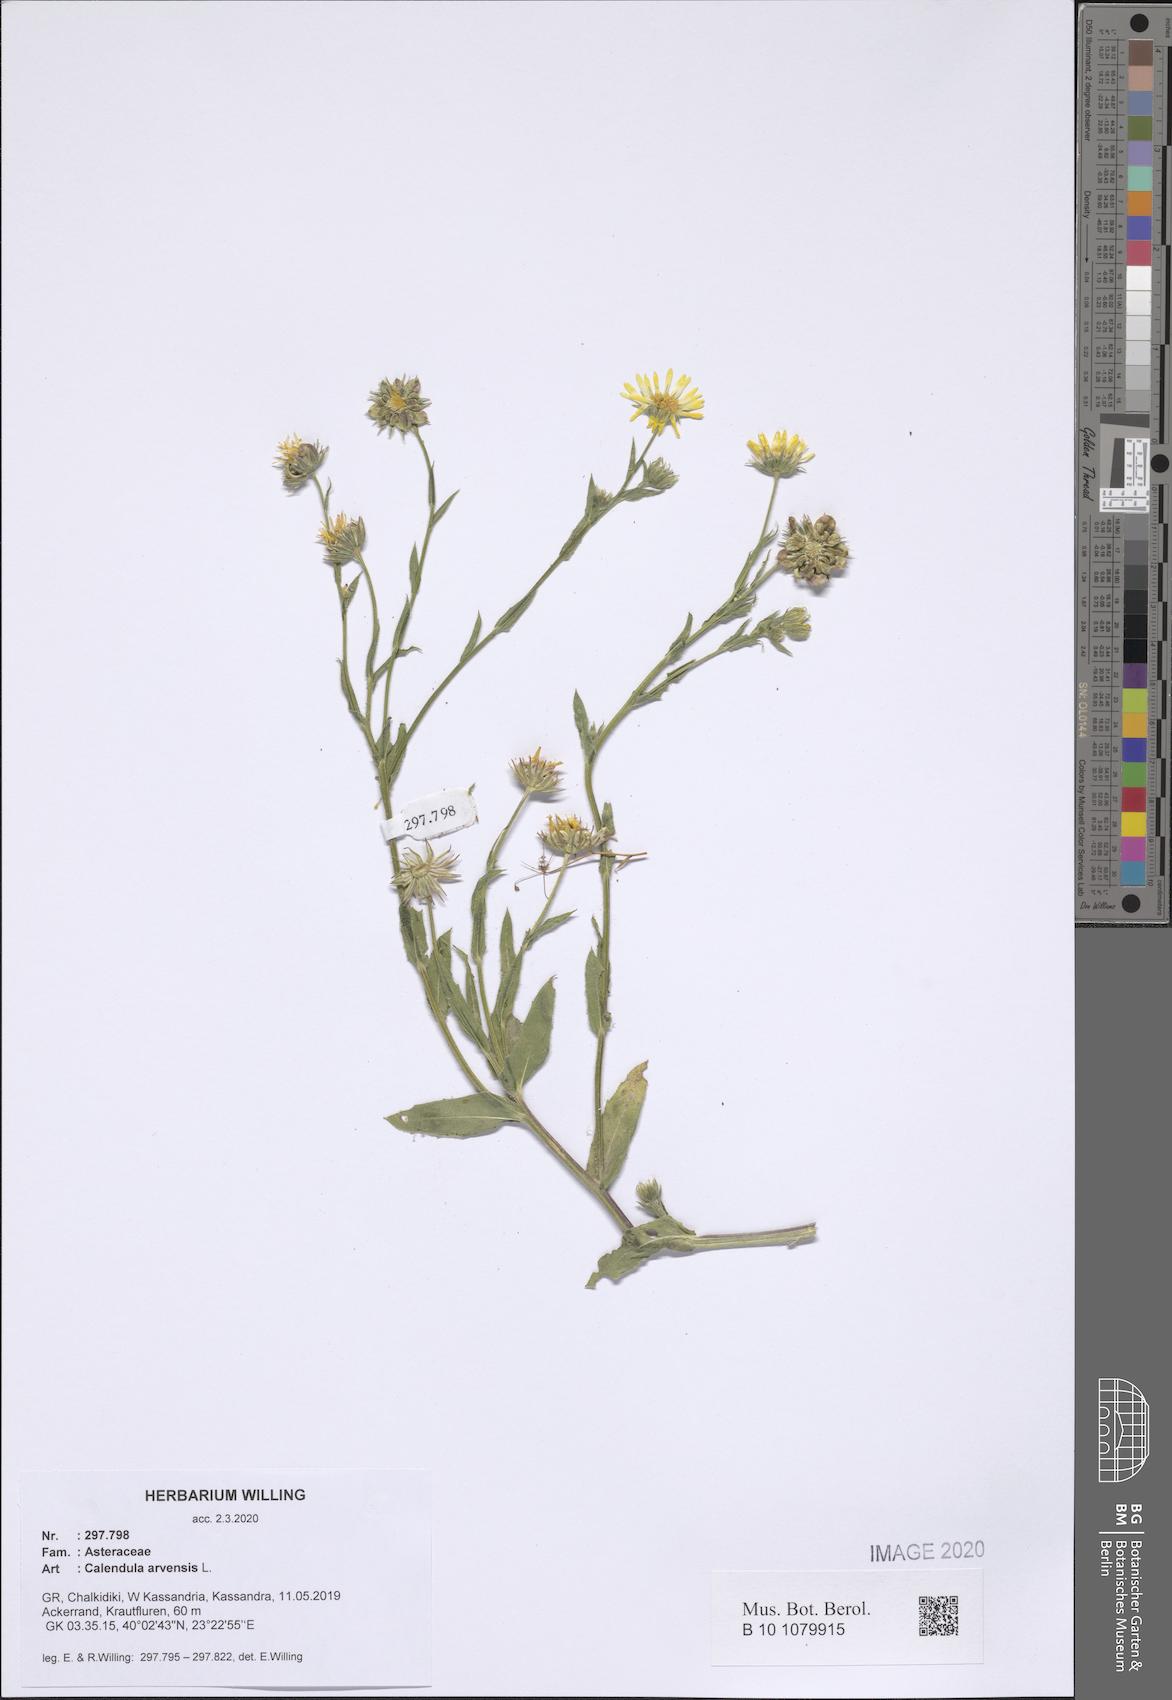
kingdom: Plantae
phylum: Tracheophyta
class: Magnoliopsida
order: Asterales
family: Asteraceae
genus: Calendula
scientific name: Calendula arvensis
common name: Field marigold
